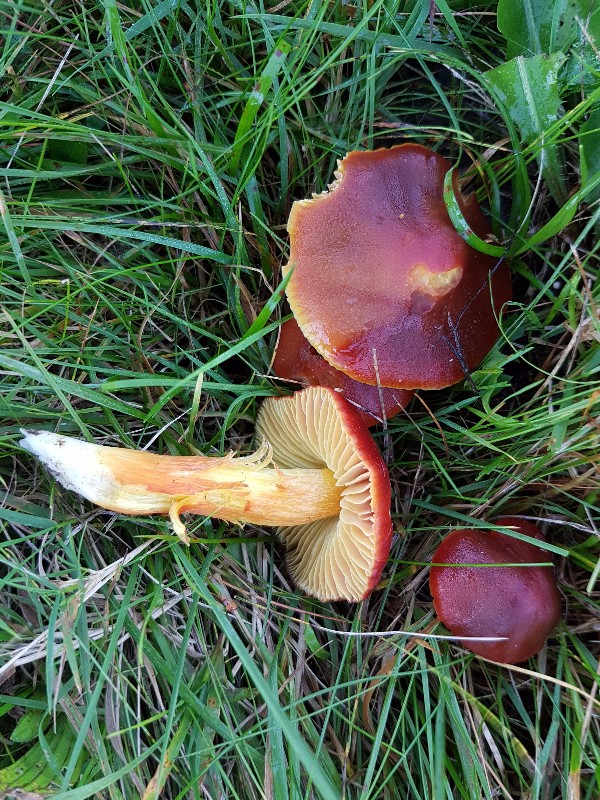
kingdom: Fungi
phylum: Basidiomycota
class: Agaricomycetes
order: Agaricales
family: Hygrophoraceae
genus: Hygrocybe
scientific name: Hygrocybe punicea
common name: skarlagen-vokshat
